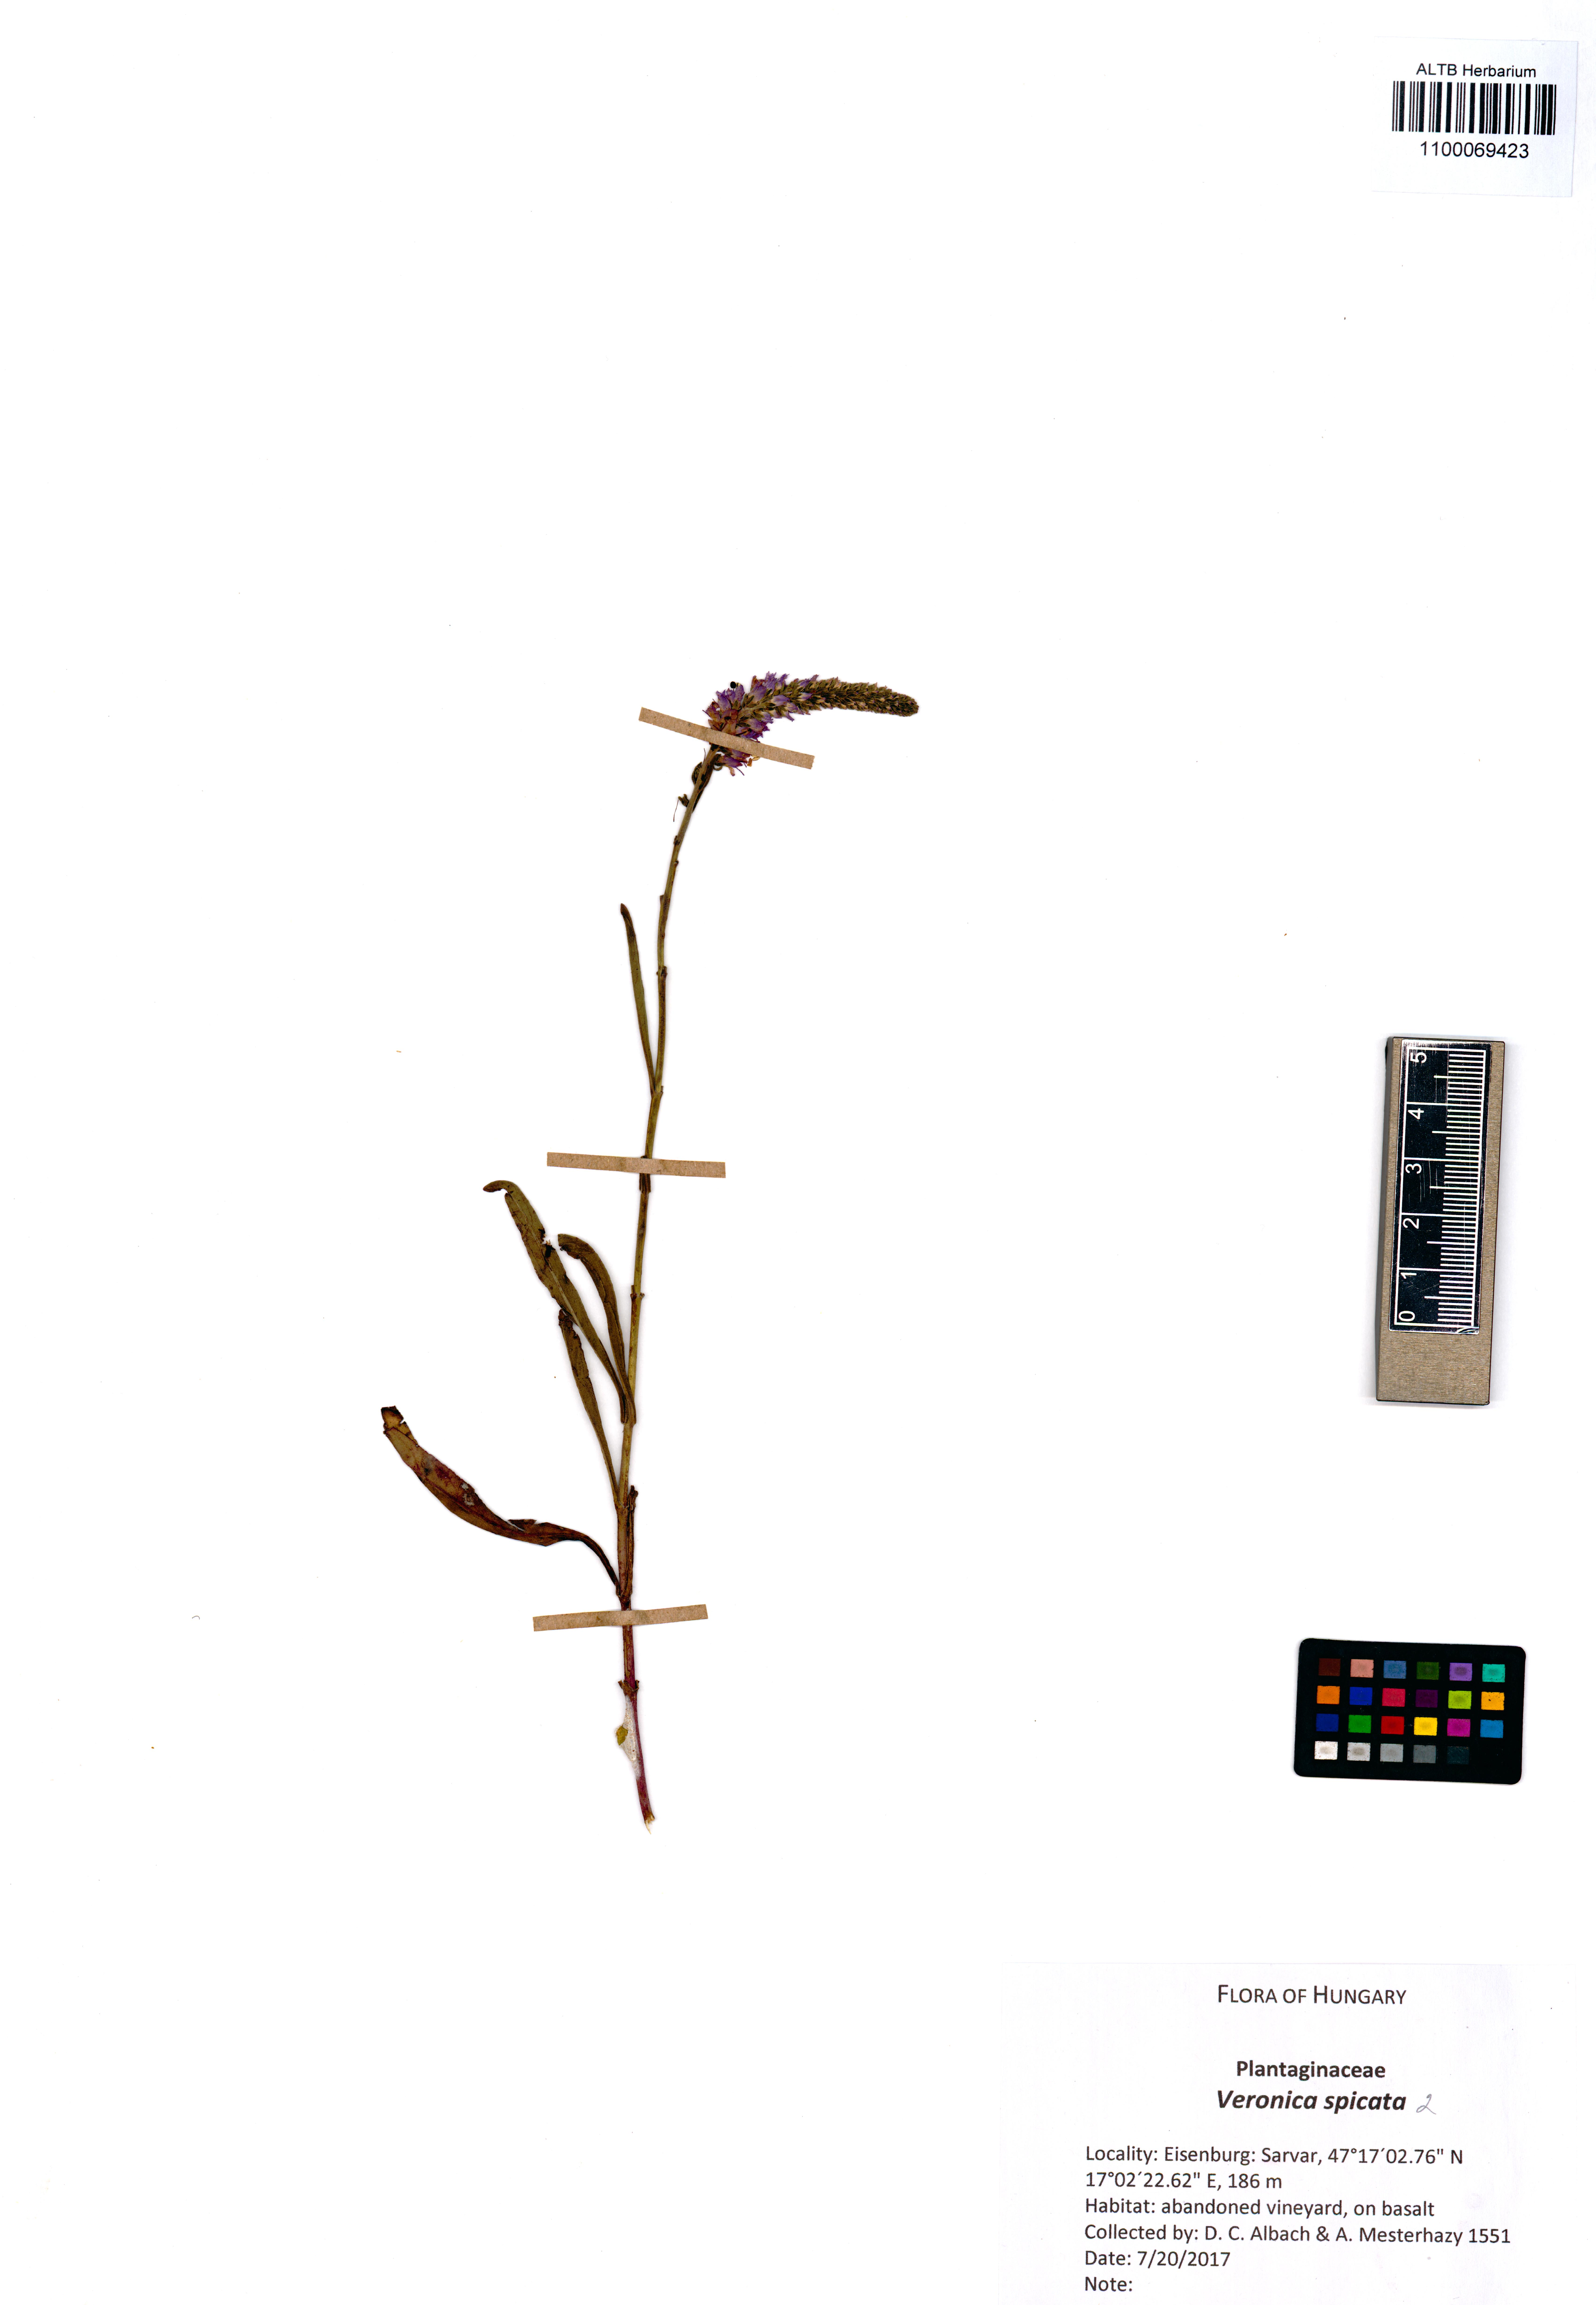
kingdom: Plantae
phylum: Tracheophyta
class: Magnoliopsida
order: Lamiales
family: Plantaginaceae
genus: Veronica
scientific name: Veronica spicata
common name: Spiked speedwell
